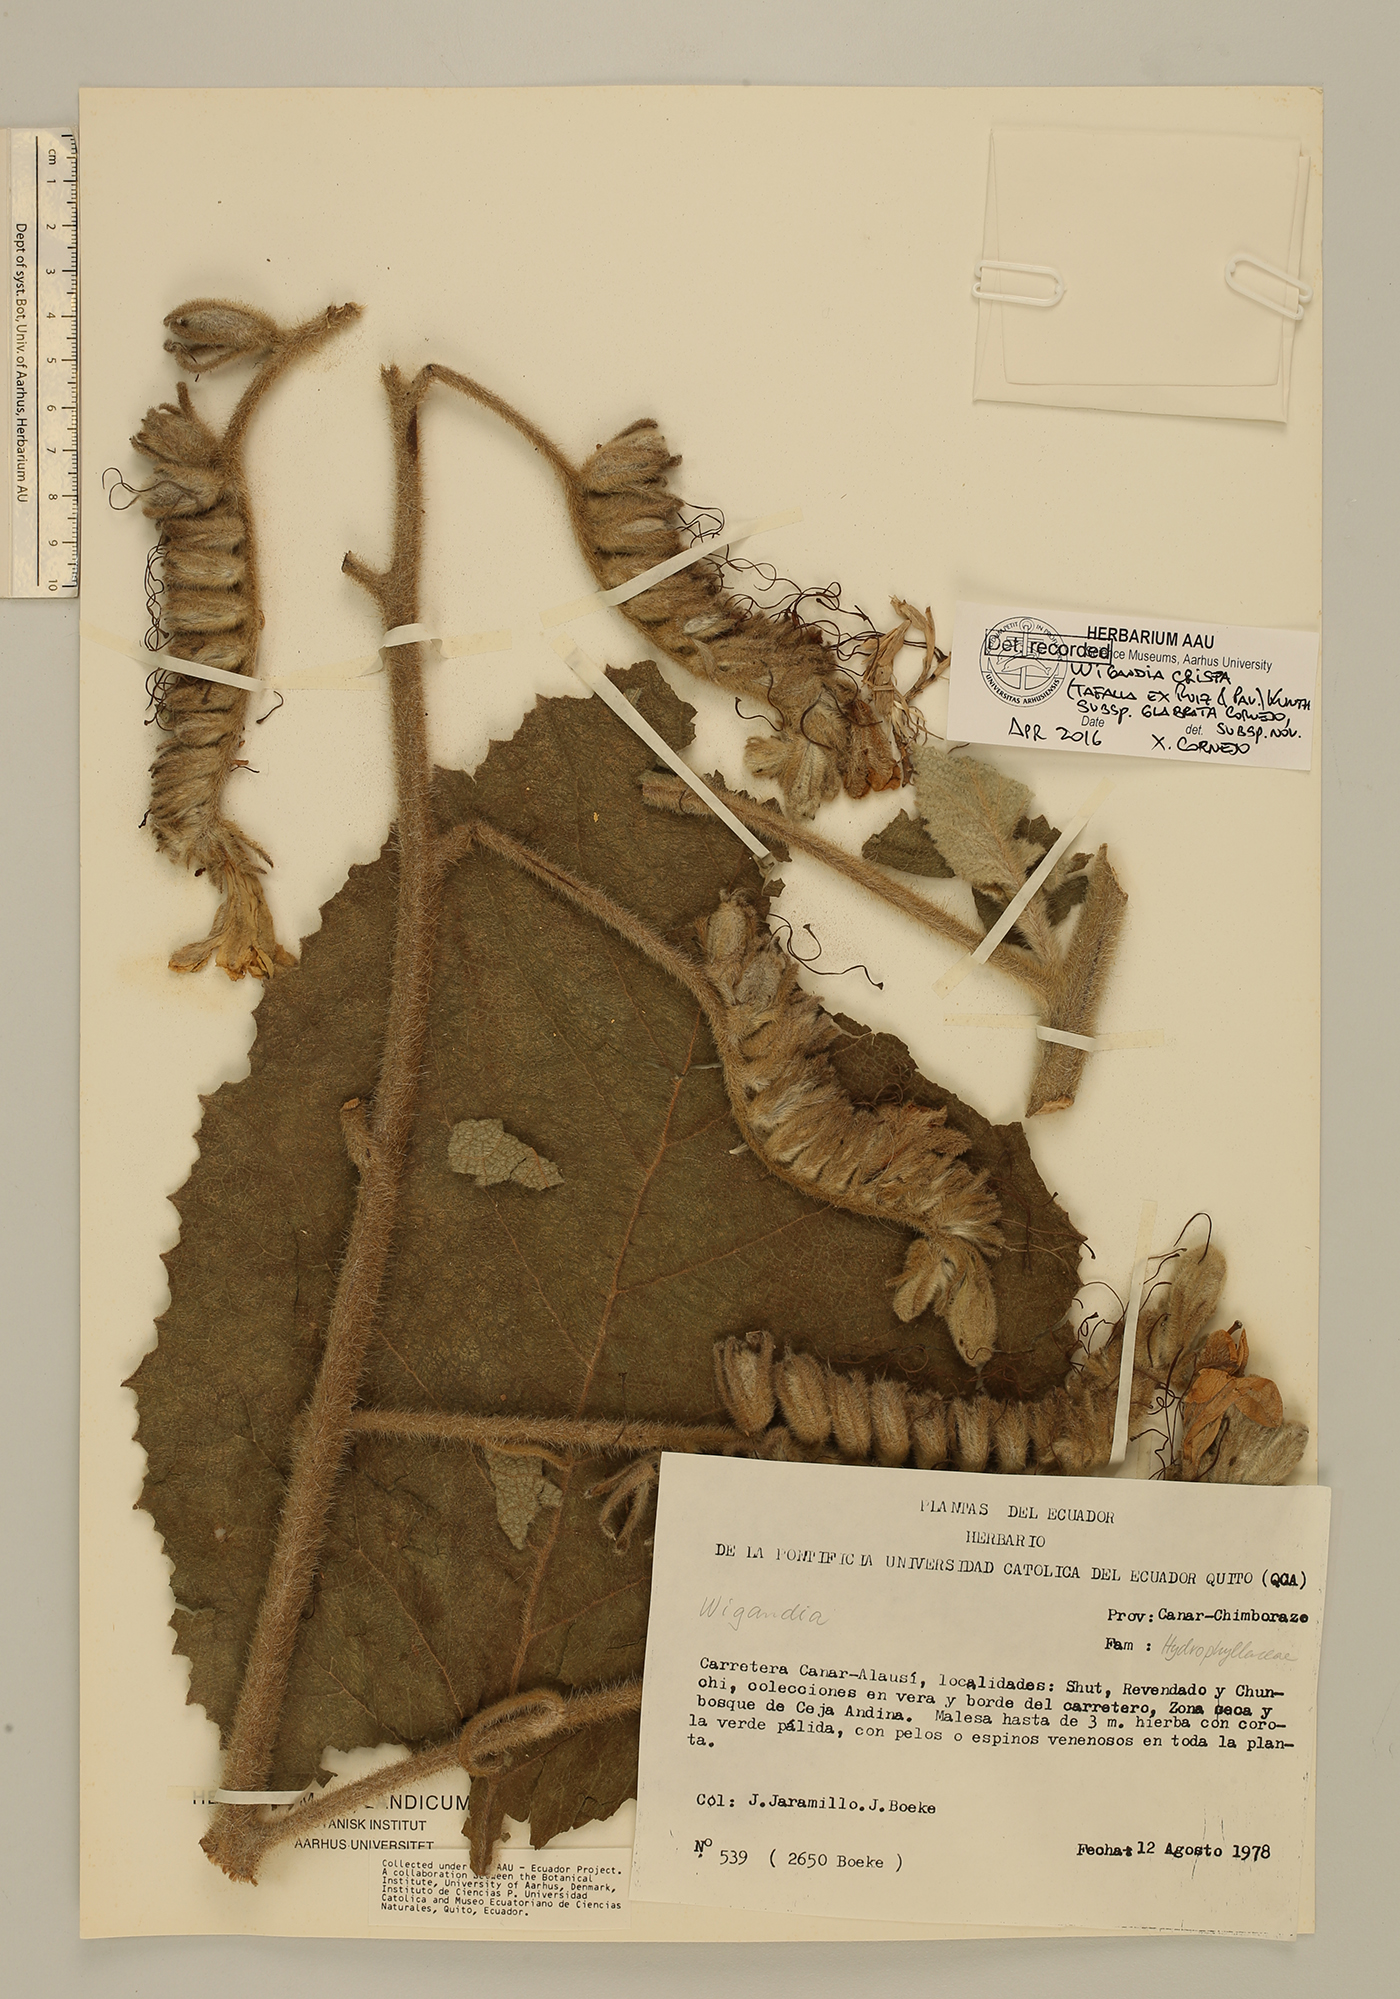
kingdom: Plantae
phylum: Tracheophyta
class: Magnoliopsida
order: Boraginales
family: Namaceae
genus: Wigandia
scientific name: Wigandia crispa
